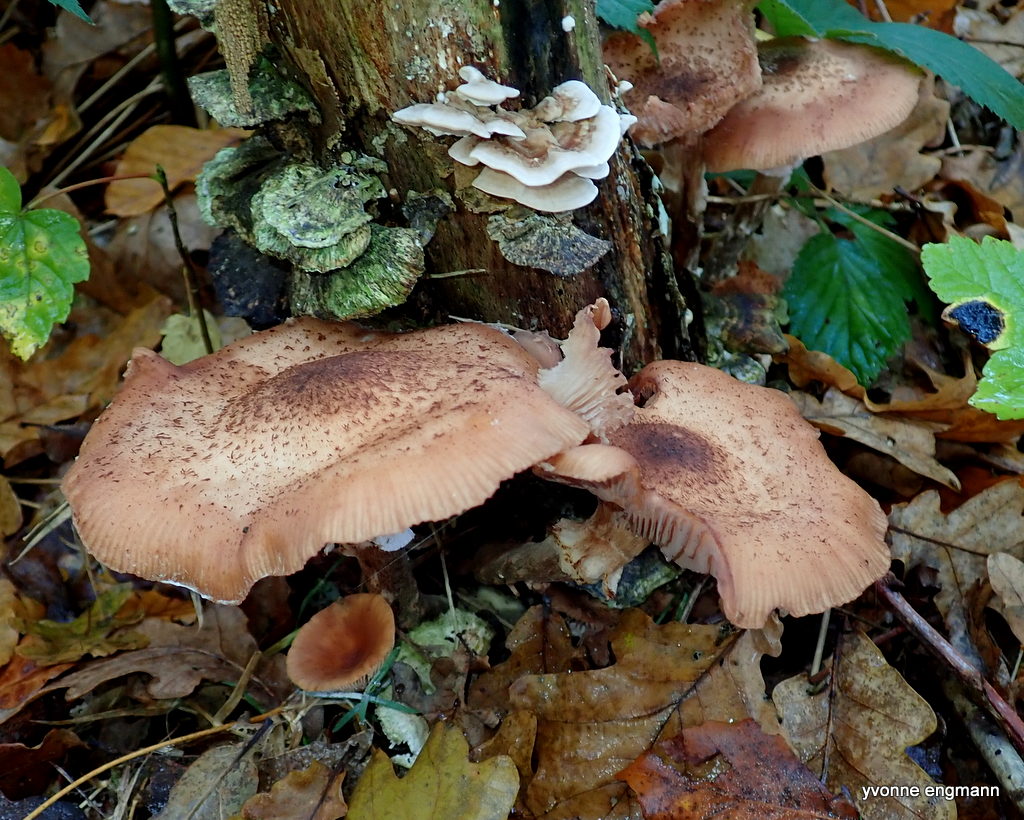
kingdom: Fungi
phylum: Basidiomycota
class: Agaricomycetes
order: Agaricales
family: Physalacriaceae
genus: Armillaria
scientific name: Armillaria lutea
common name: køllestokket honningsvamp
